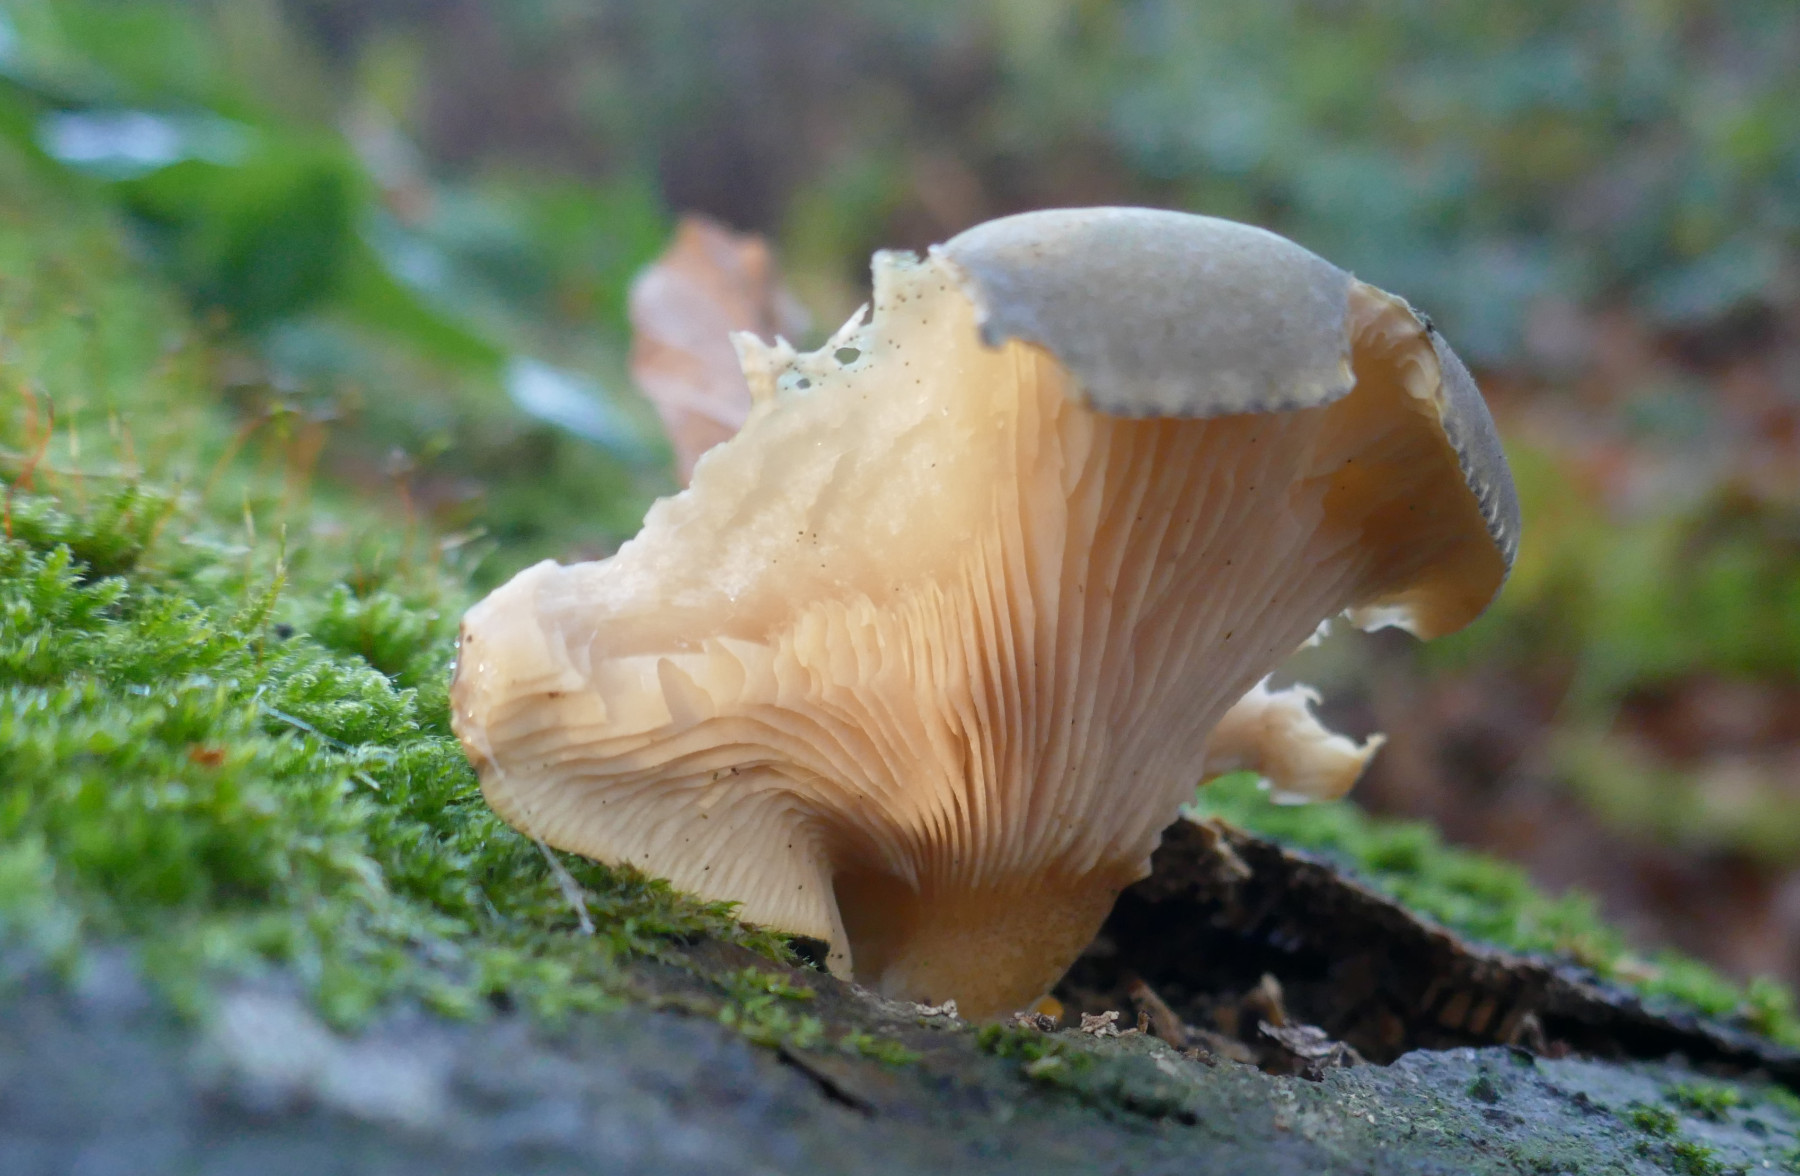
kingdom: Fungi
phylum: Basidiomycota
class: Agaricomycetes
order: Agaricales
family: Sarcomyxaceae
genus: Sarcomyxa
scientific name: Sarcomyxa serotina
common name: gummihat
